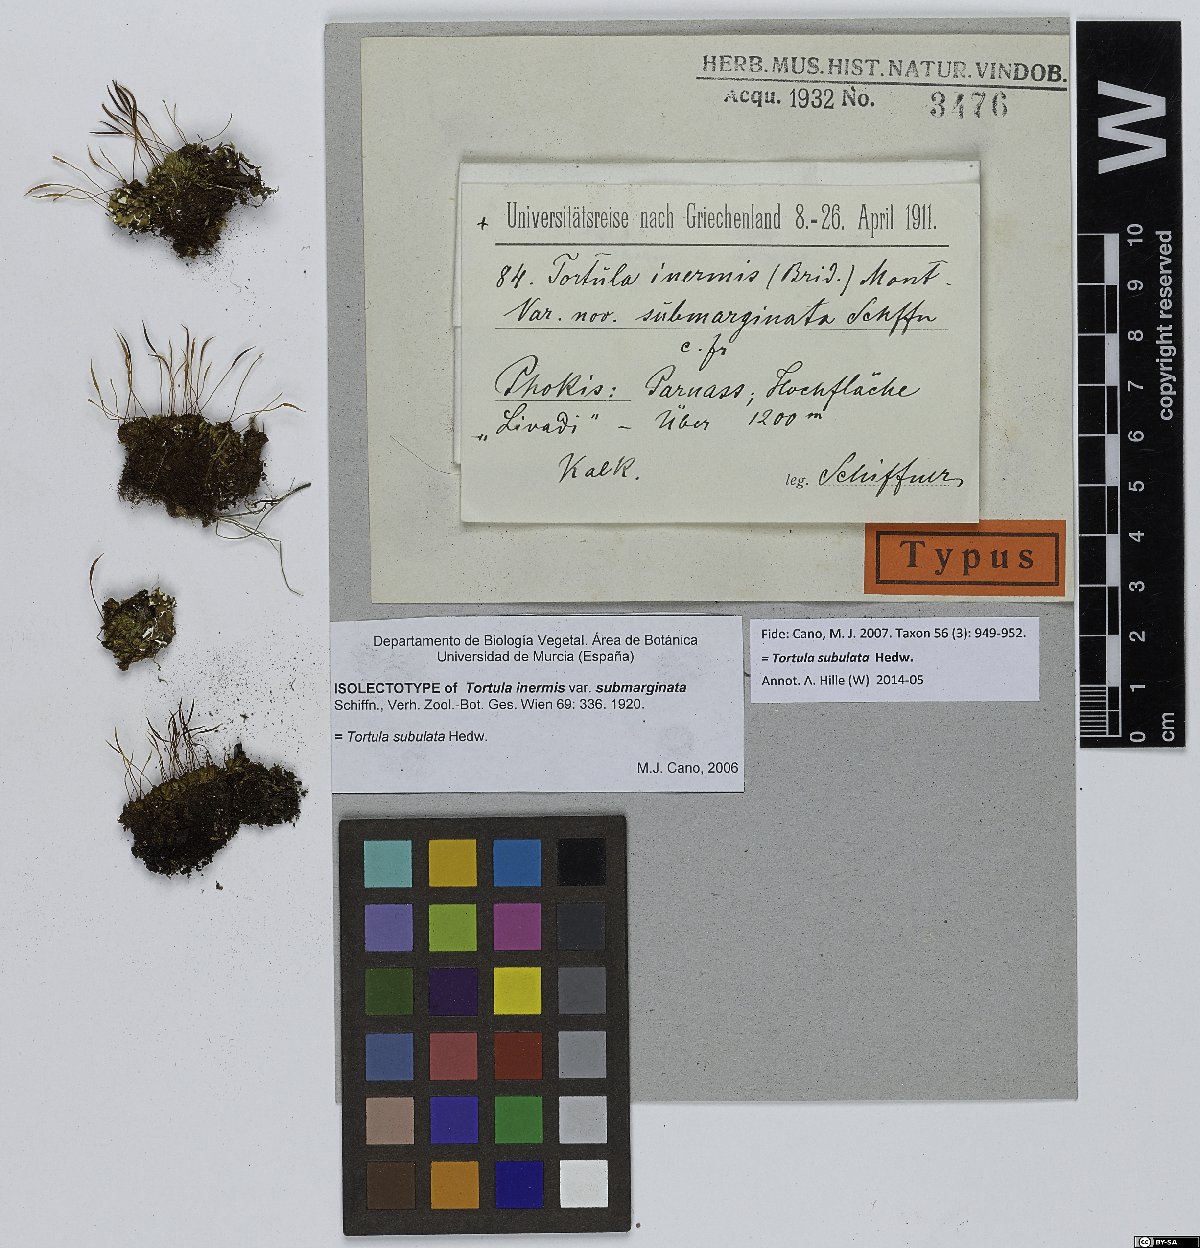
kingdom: Plantae
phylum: Bryophyta
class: Bryopsida
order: Pottiales
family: Pottiaceae
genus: Tortula
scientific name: Tortula inermis
